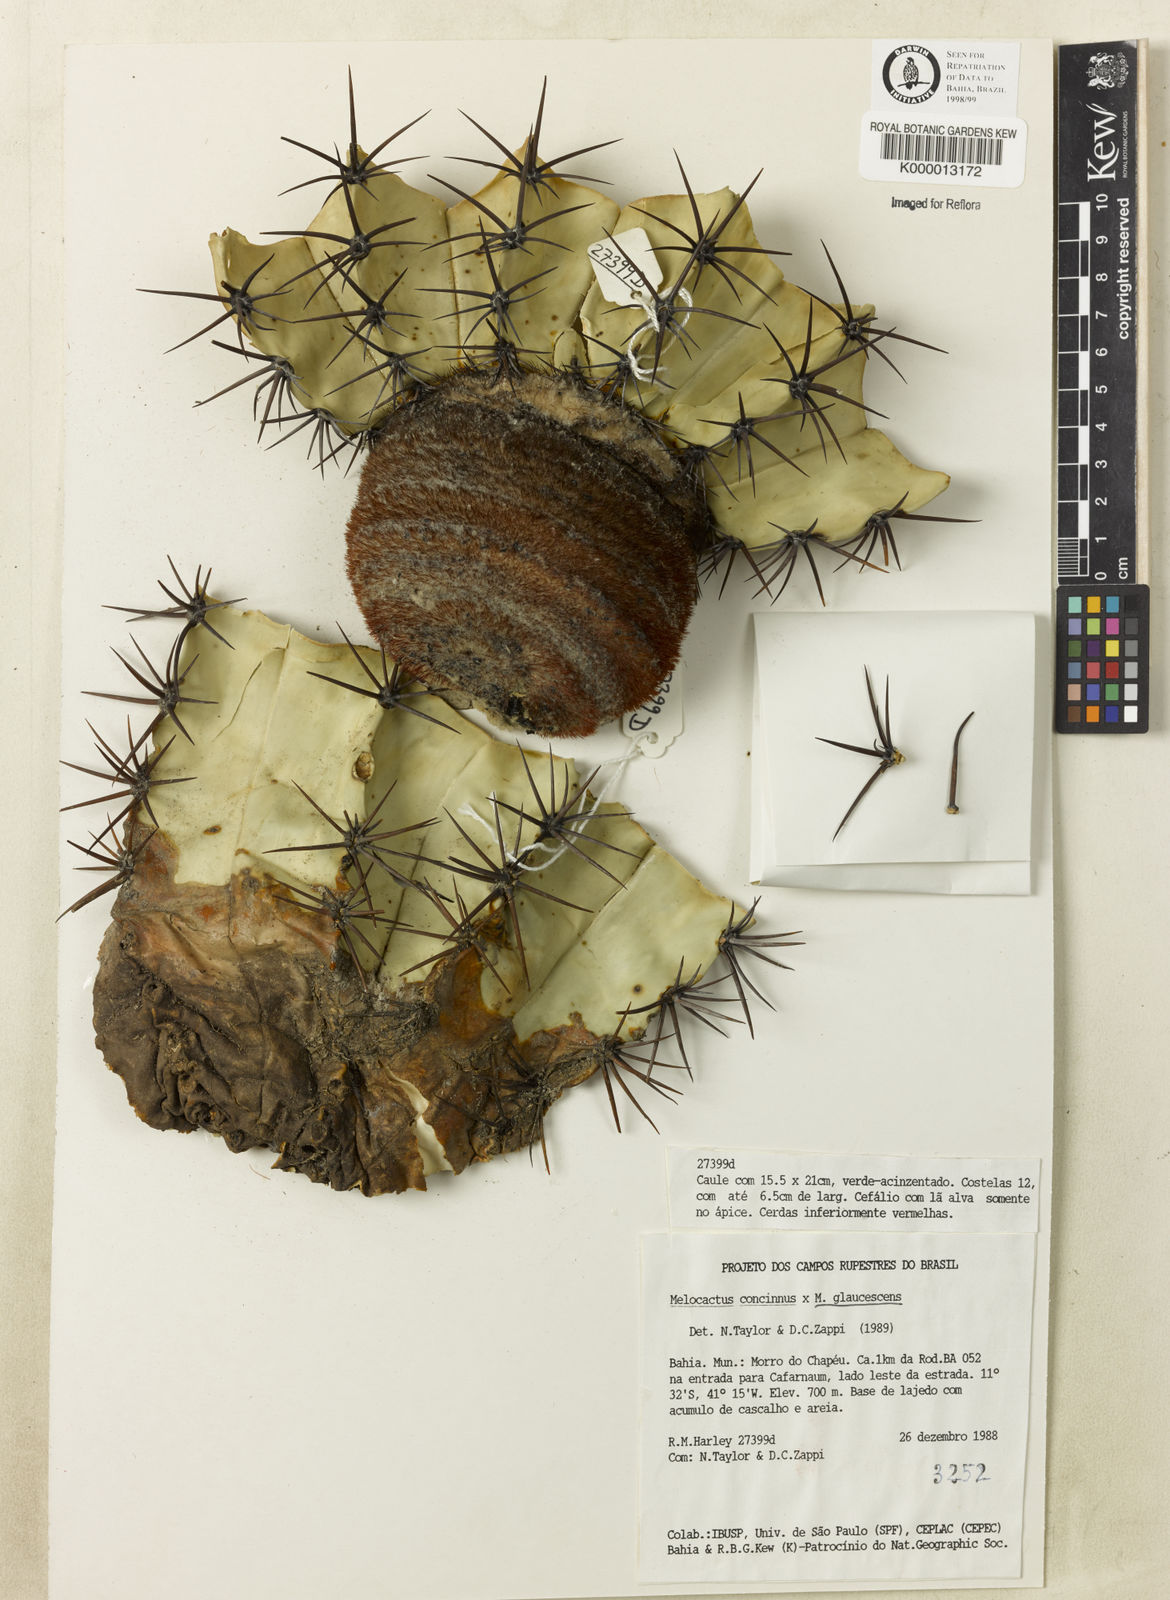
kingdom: Plantae
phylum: Tracheophyta
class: Magnoliopsida
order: Caryophyllales
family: Cactaceae
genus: Melocactus
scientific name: Melocactus pruinosus
